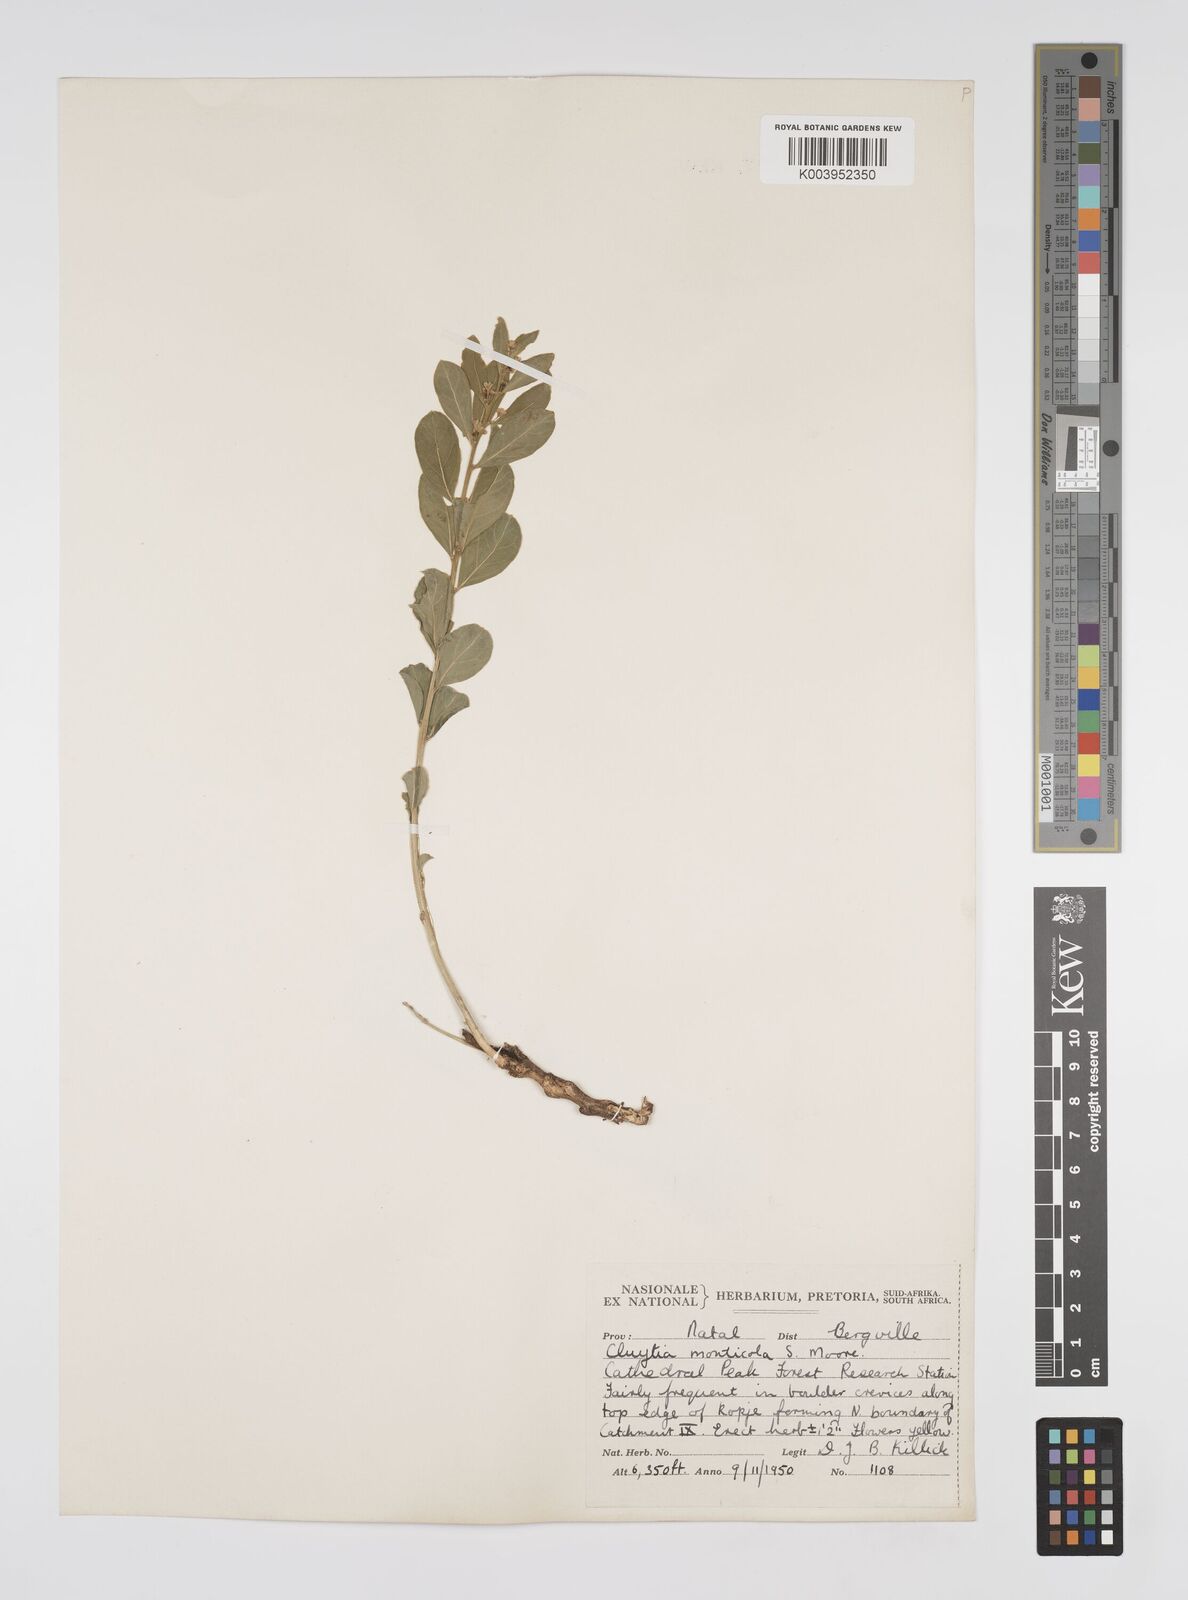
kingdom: Plantae
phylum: Tracheophyta
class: Magnoliopsida
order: Malpighiales
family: Peraceae
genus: Clutia
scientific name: Clutia monticola
